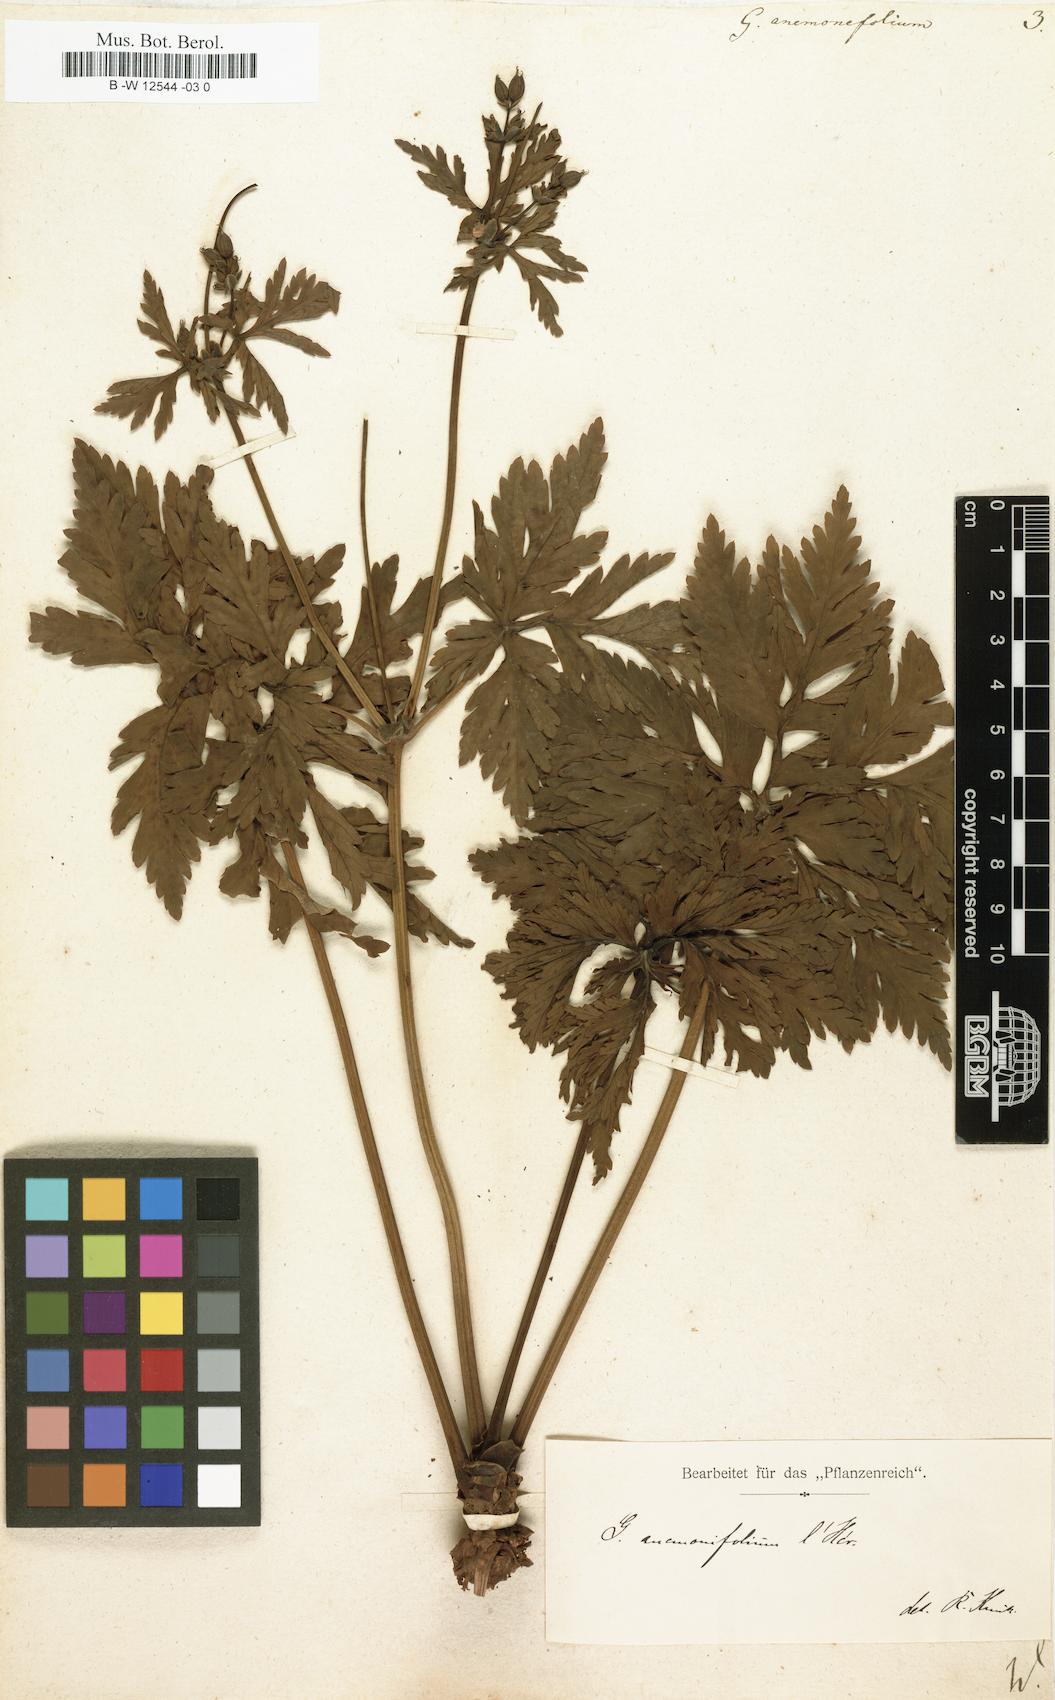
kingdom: Plantae
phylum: Tracheophyta
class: Magnoliopsida
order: Geraniales
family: Geraniaceae
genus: Geranium
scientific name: Geranium palmatum
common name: Canary island geranium
